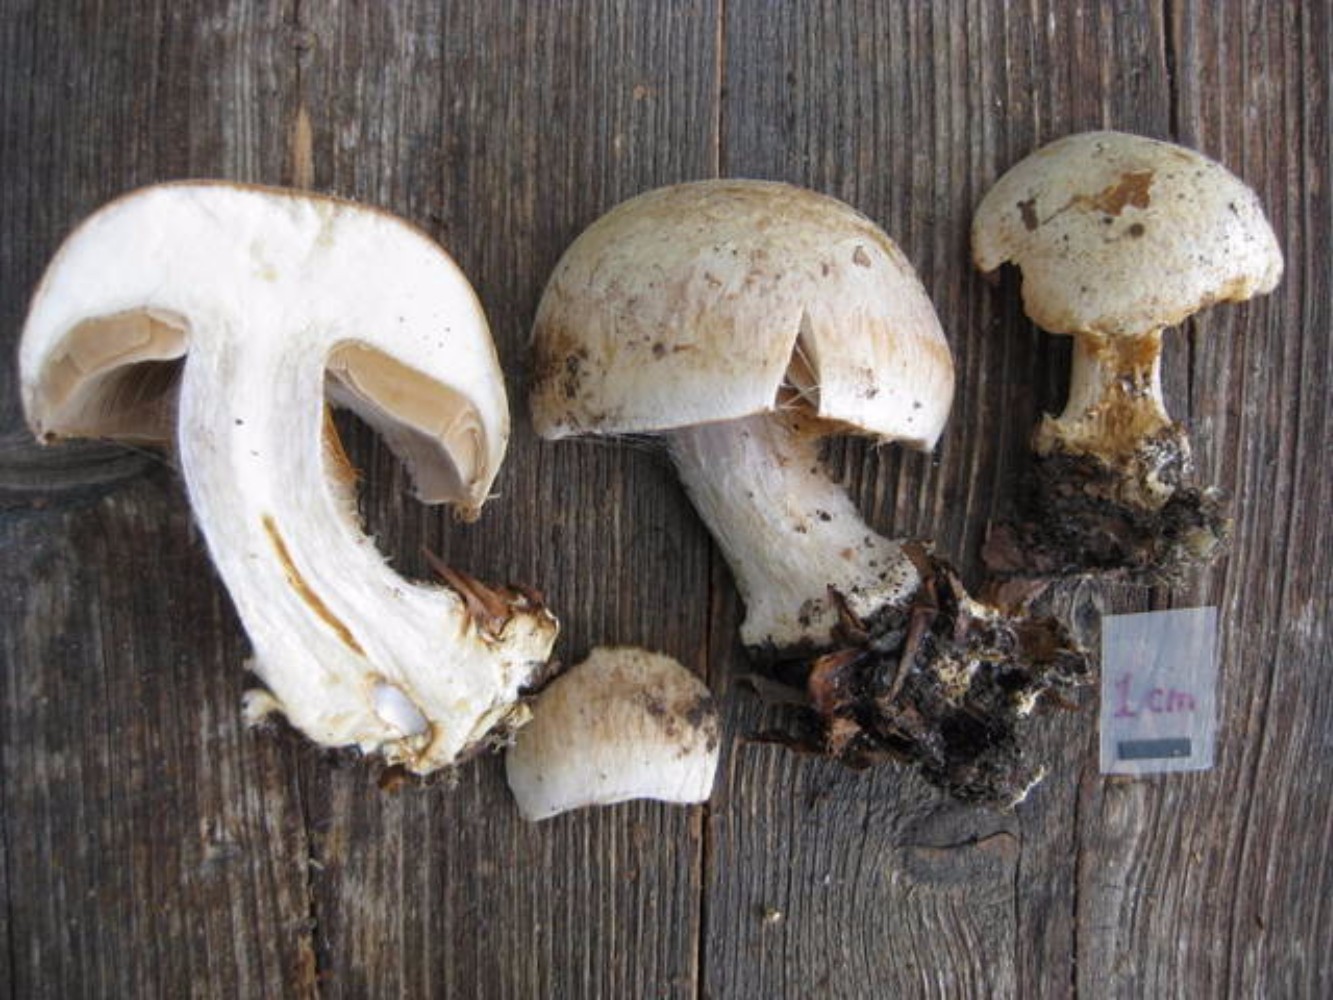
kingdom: Fungi
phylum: Basidiomycota
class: Agaricomycetes
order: Agaricales
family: Cortinariaceae
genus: Cortinarius
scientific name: Cortinarius foetens
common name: stribet slørhat
